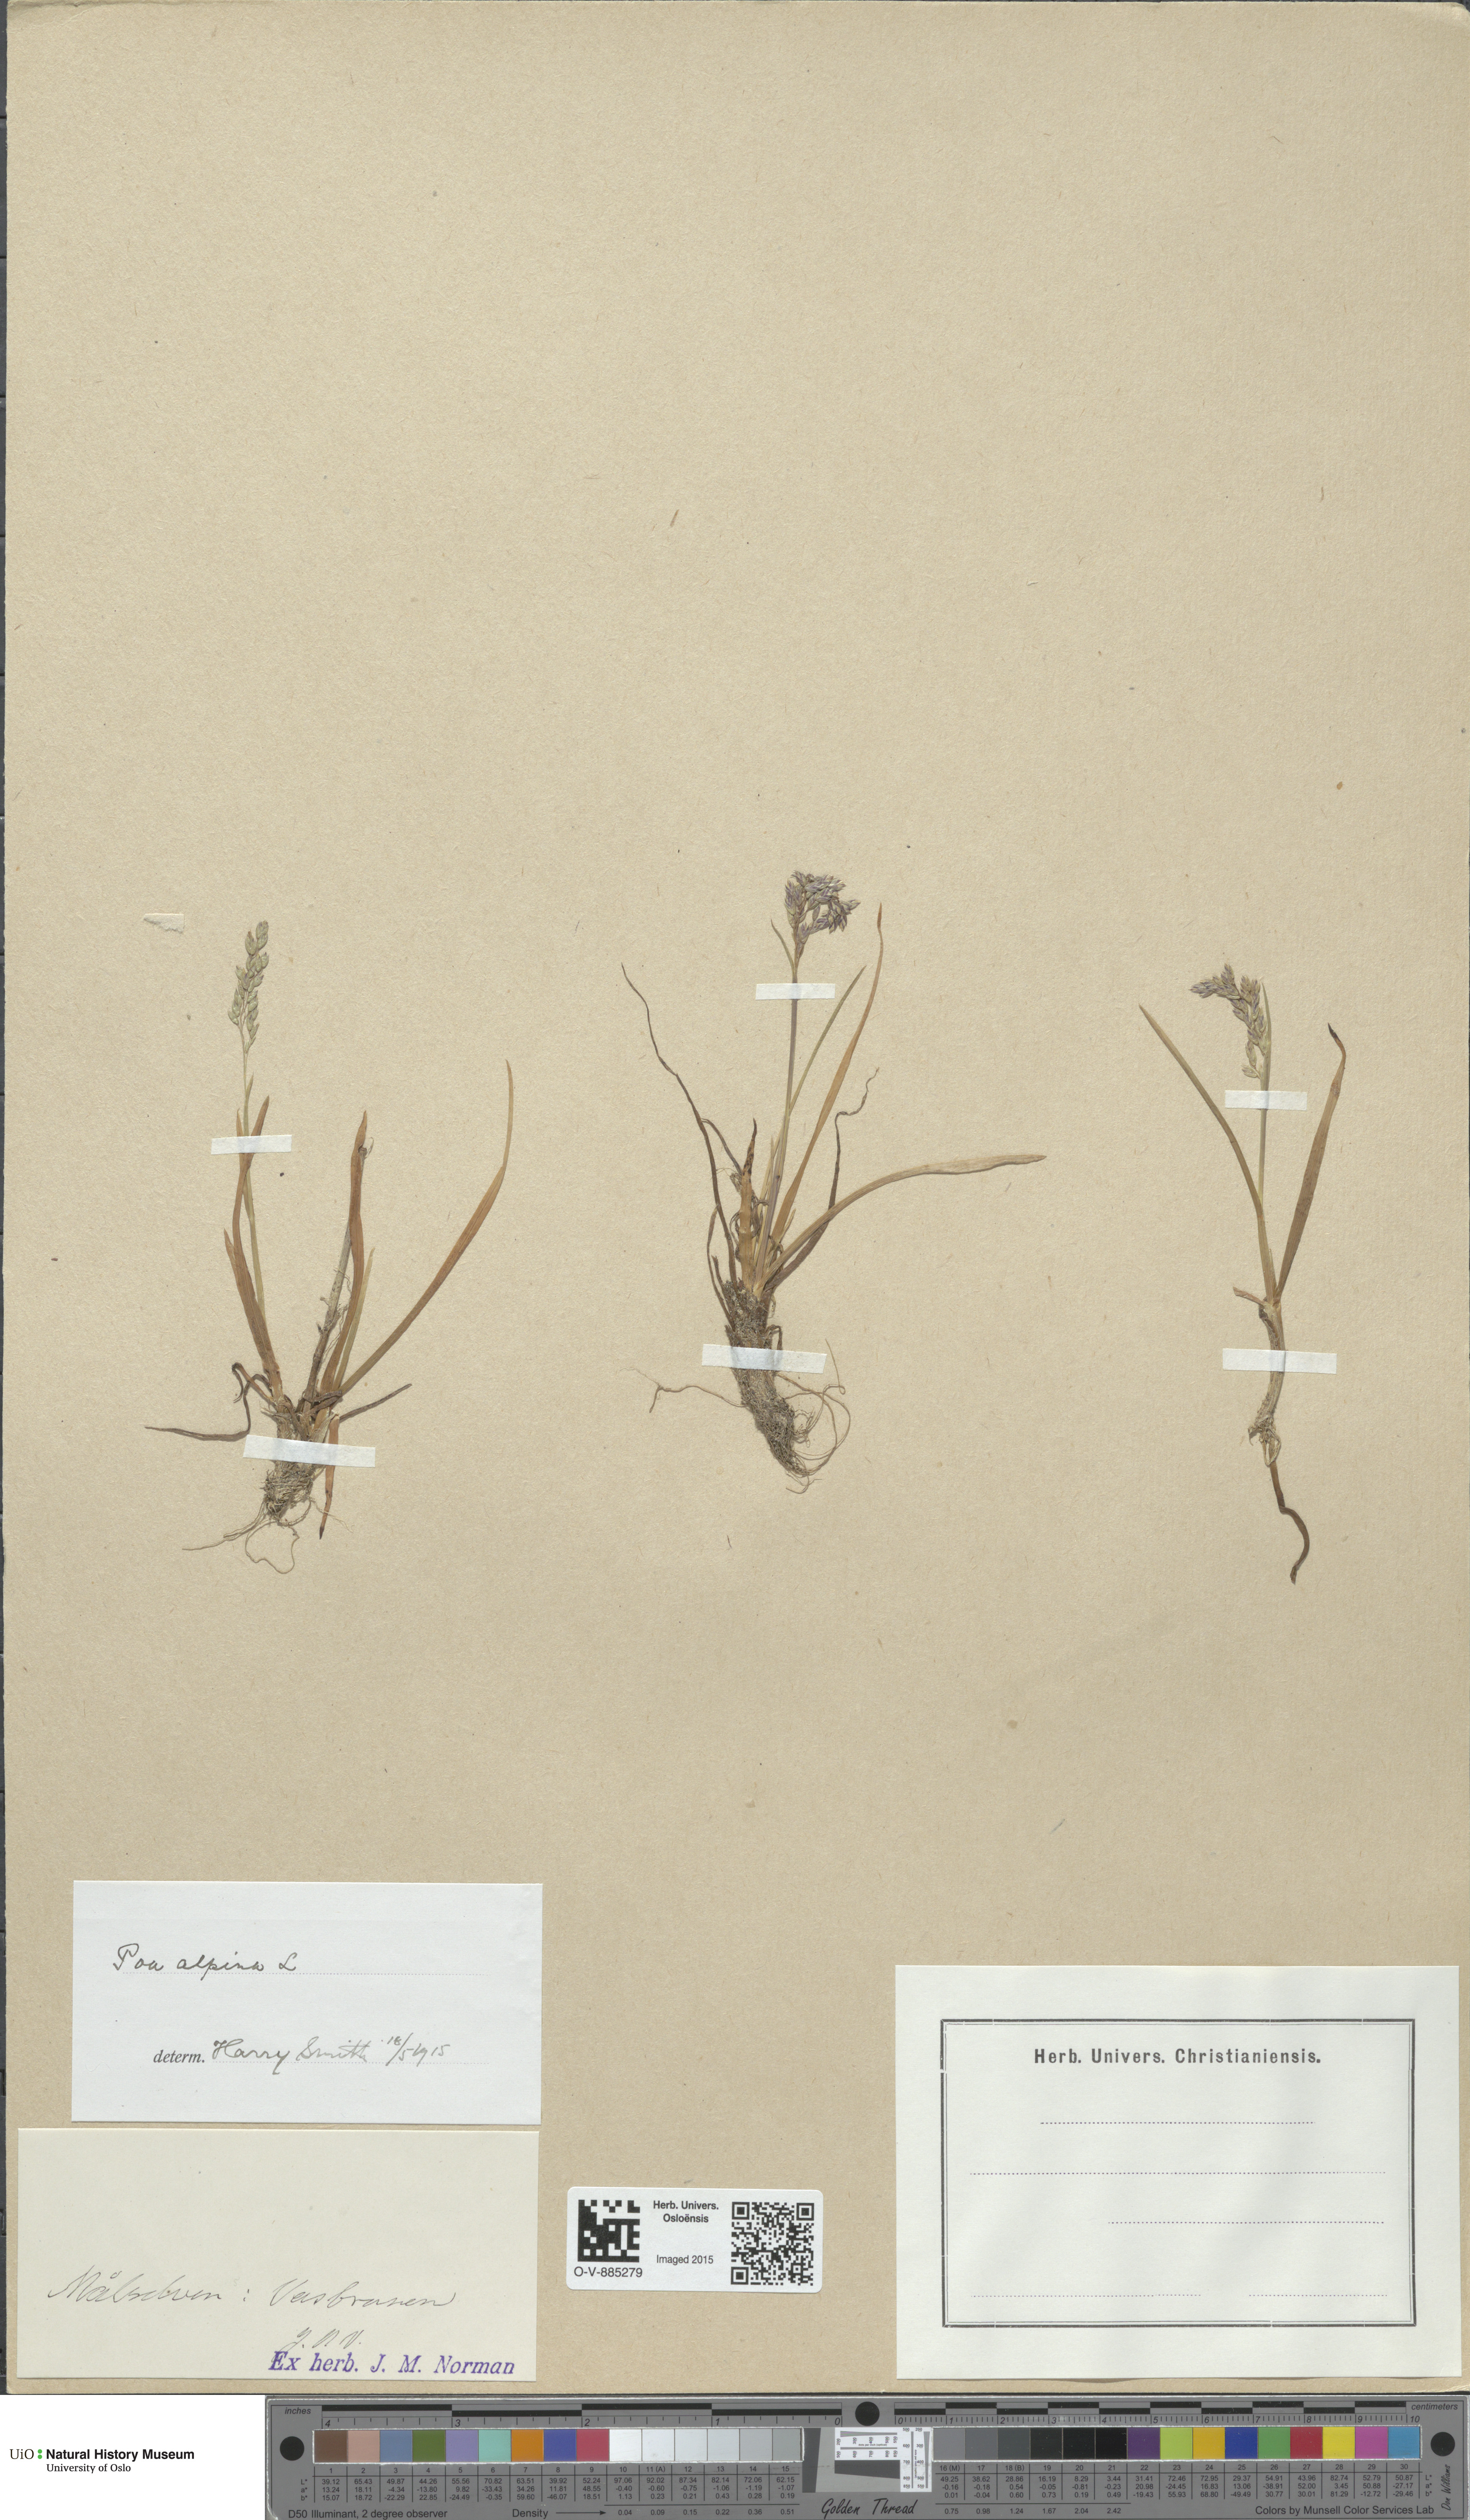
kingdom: Plantae
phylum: Tracheophyta
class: Liliopsida
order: Poales
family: Poaceae
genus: Poa
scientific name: Poa alpina
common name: Alpine bluegrass
